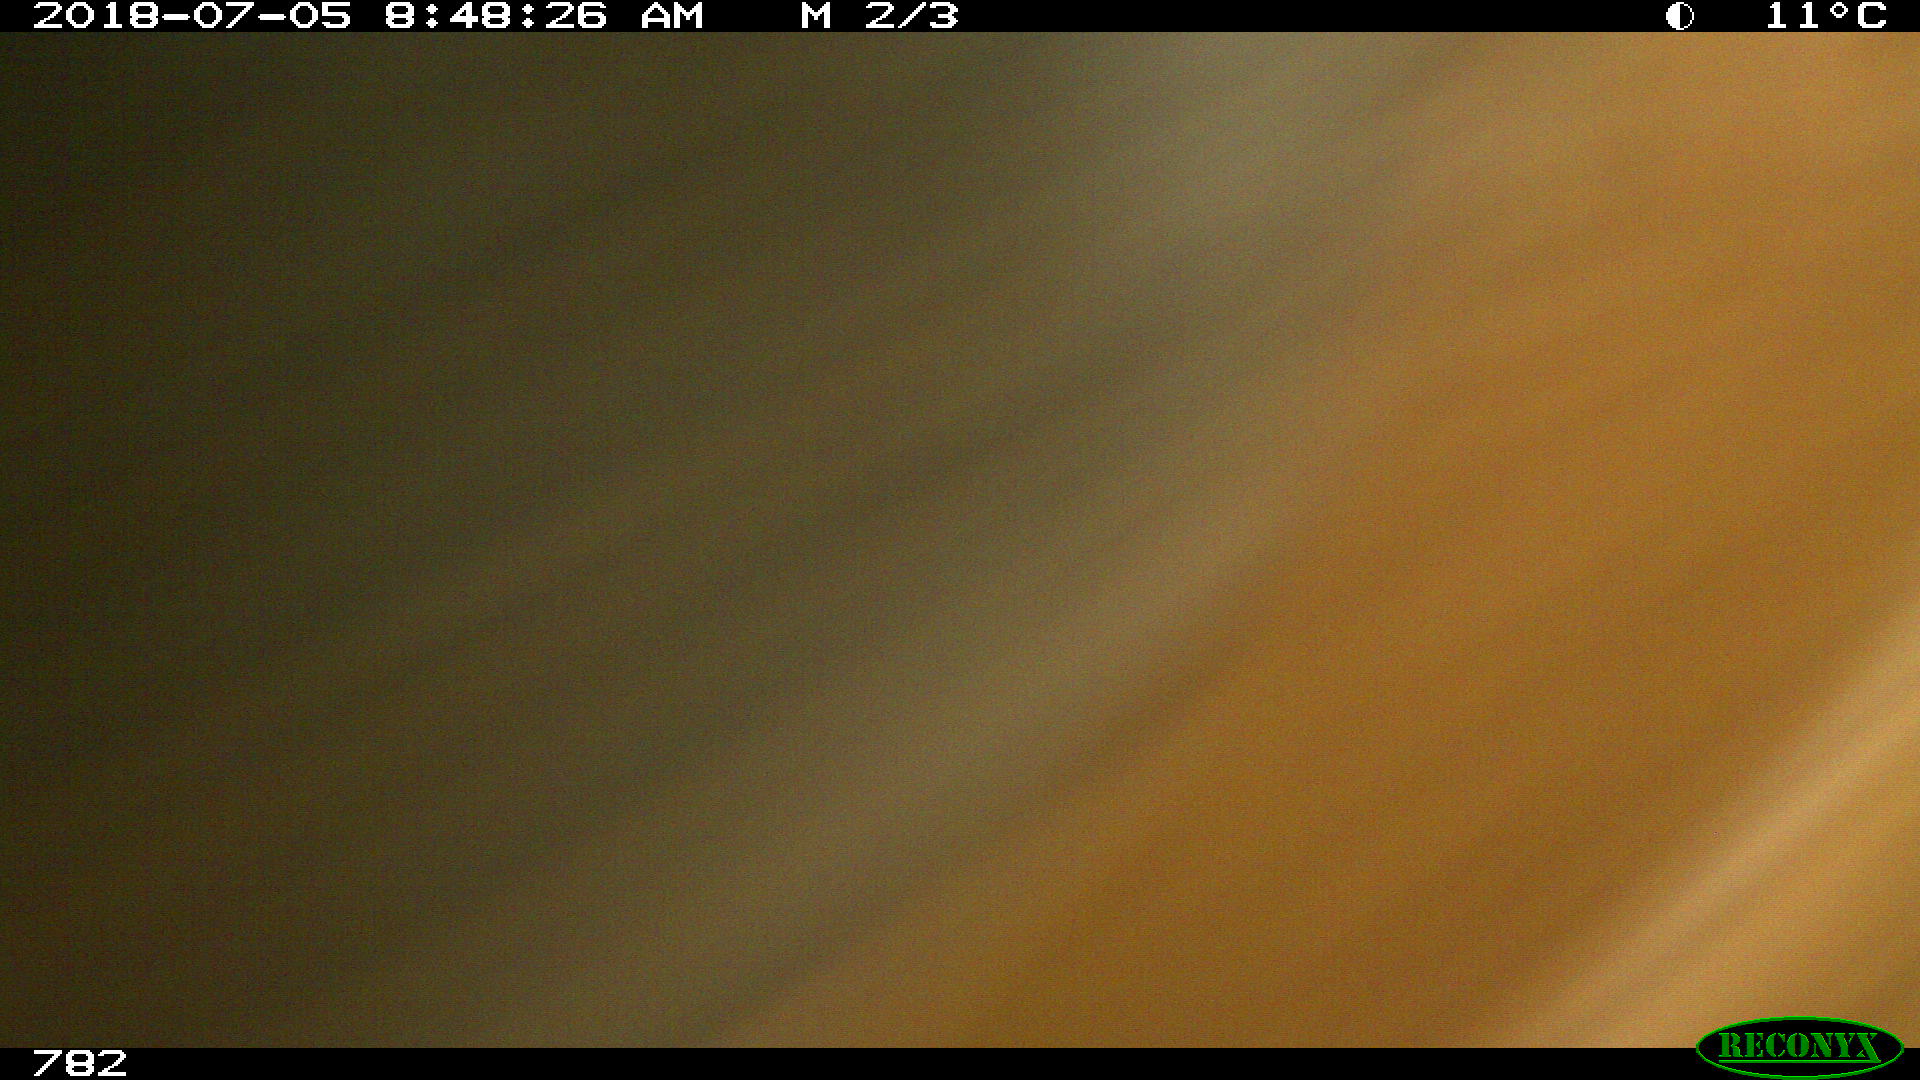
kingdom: Animalia
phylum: Chordata
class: Mammalia
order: Perissodactyla
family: Equidae
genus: Equus
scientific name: Equus caballus
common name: Horse
